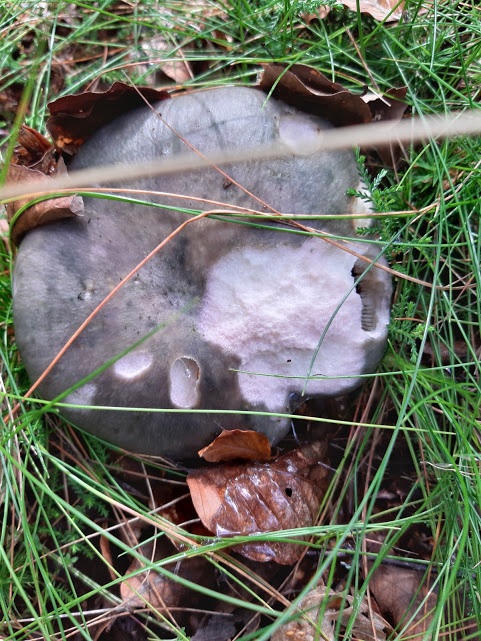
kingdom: Fungi
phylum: Basidiomycota
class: Agaricomycetes
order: Russulales
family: Russulaceae
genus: Russula
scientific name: Russula cyanoxantha
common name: broget skørhat
